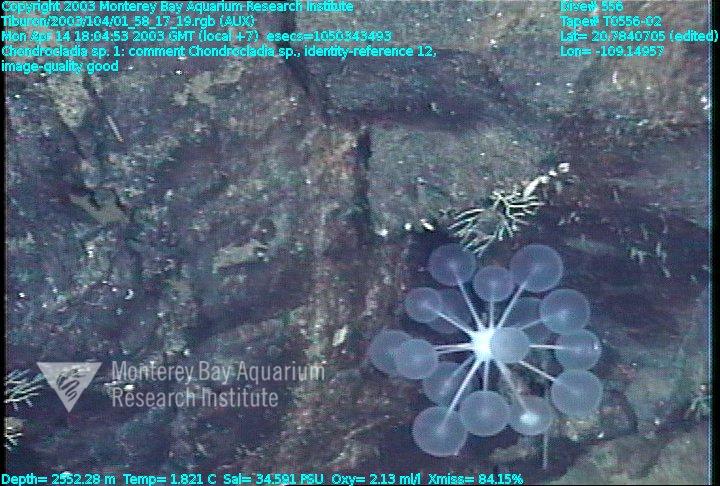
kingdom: Animalia
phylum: Porifera
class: Demospongiae
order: Poecilosclerida
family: Cladorhizidae
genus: Chondrocladia
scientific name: Chondrocladia
